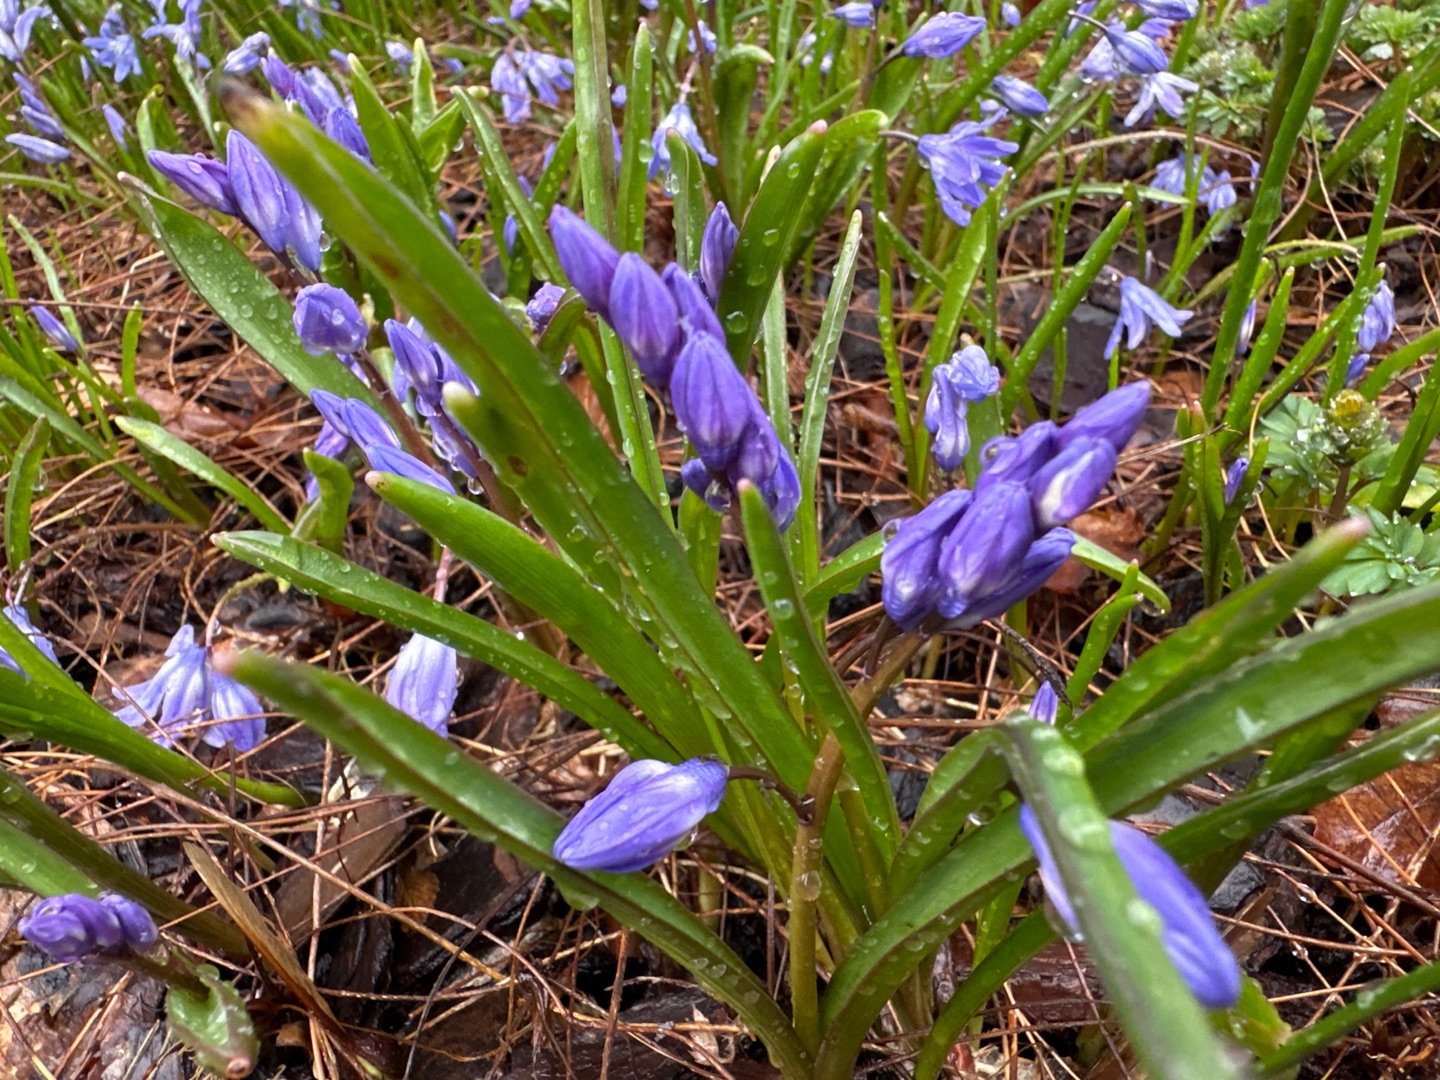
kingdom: Plantae
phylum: Tracheophyta
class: Liliopsida
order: Asparagales
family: Asparagaceae
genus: Scilla
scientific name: Scilla forbesii
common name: Almindelig snepryd
